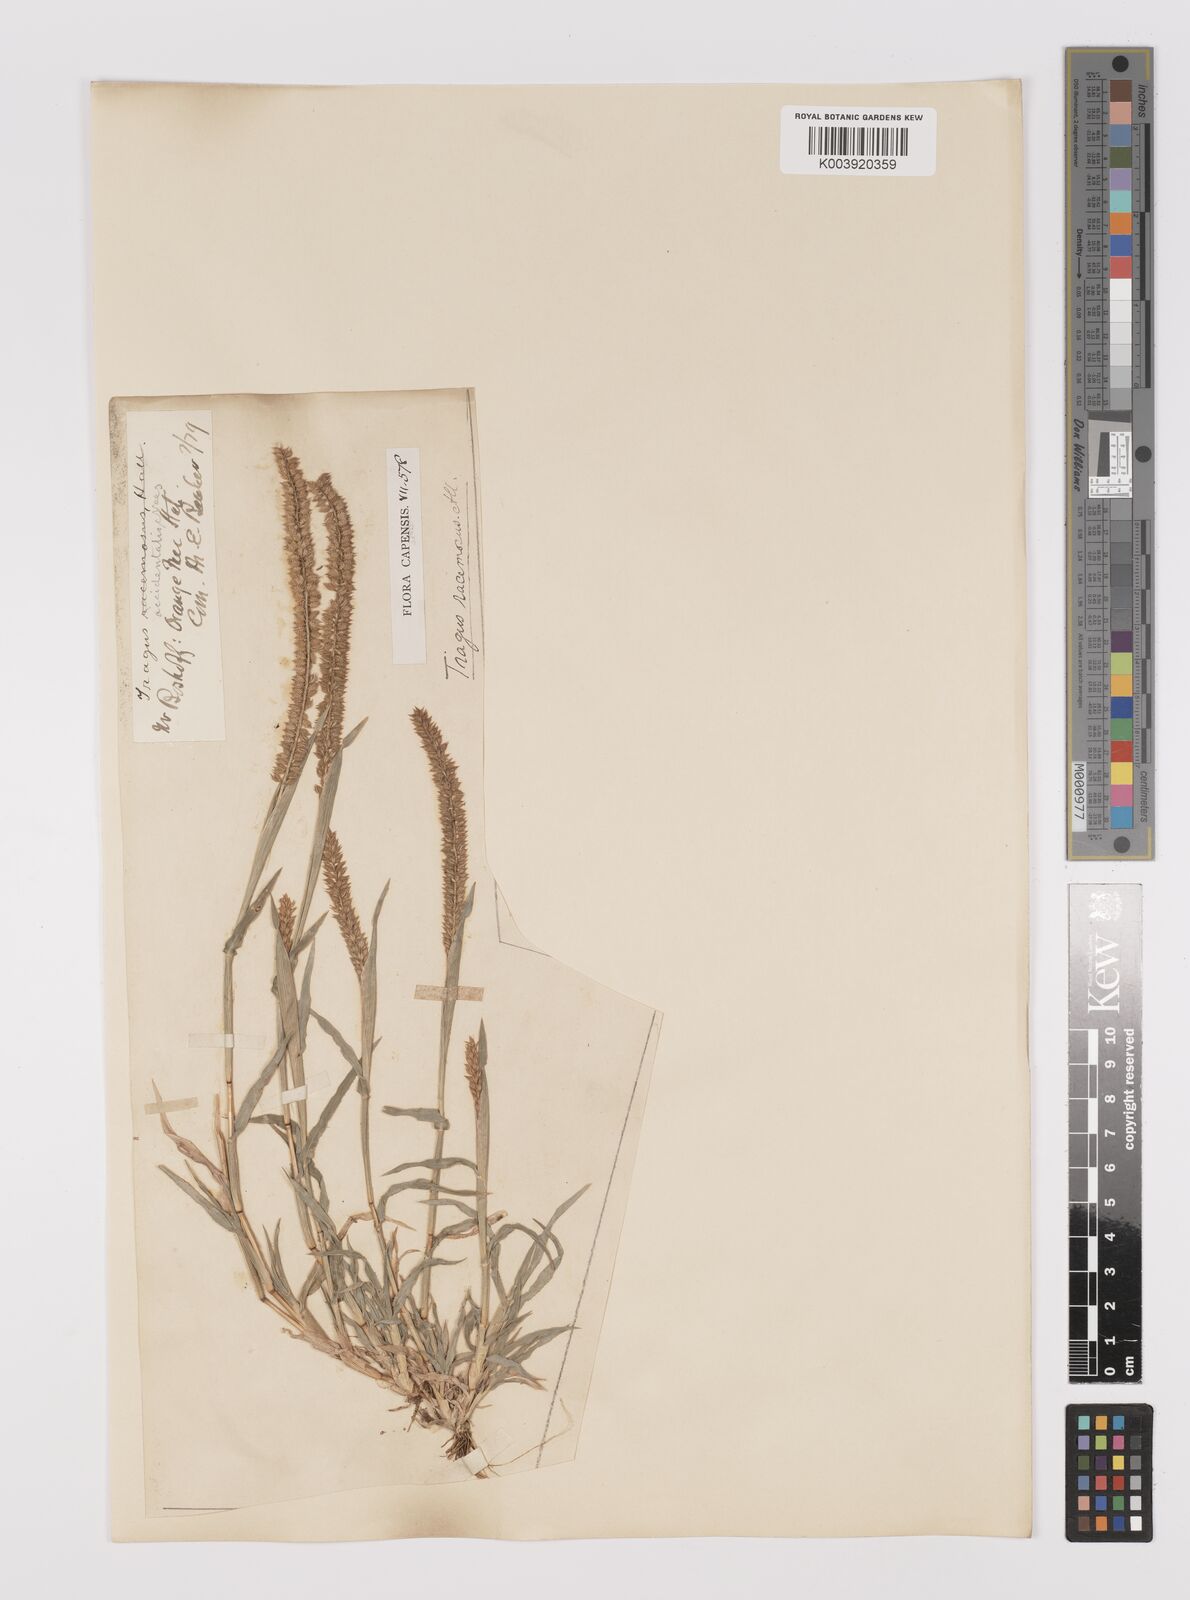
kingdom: Plantae
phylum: Tracheophyta
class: Liliopsida
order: Poales
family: Poaceae
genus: Tragus
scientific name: Tragus berteronianus
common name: African bur-grass
